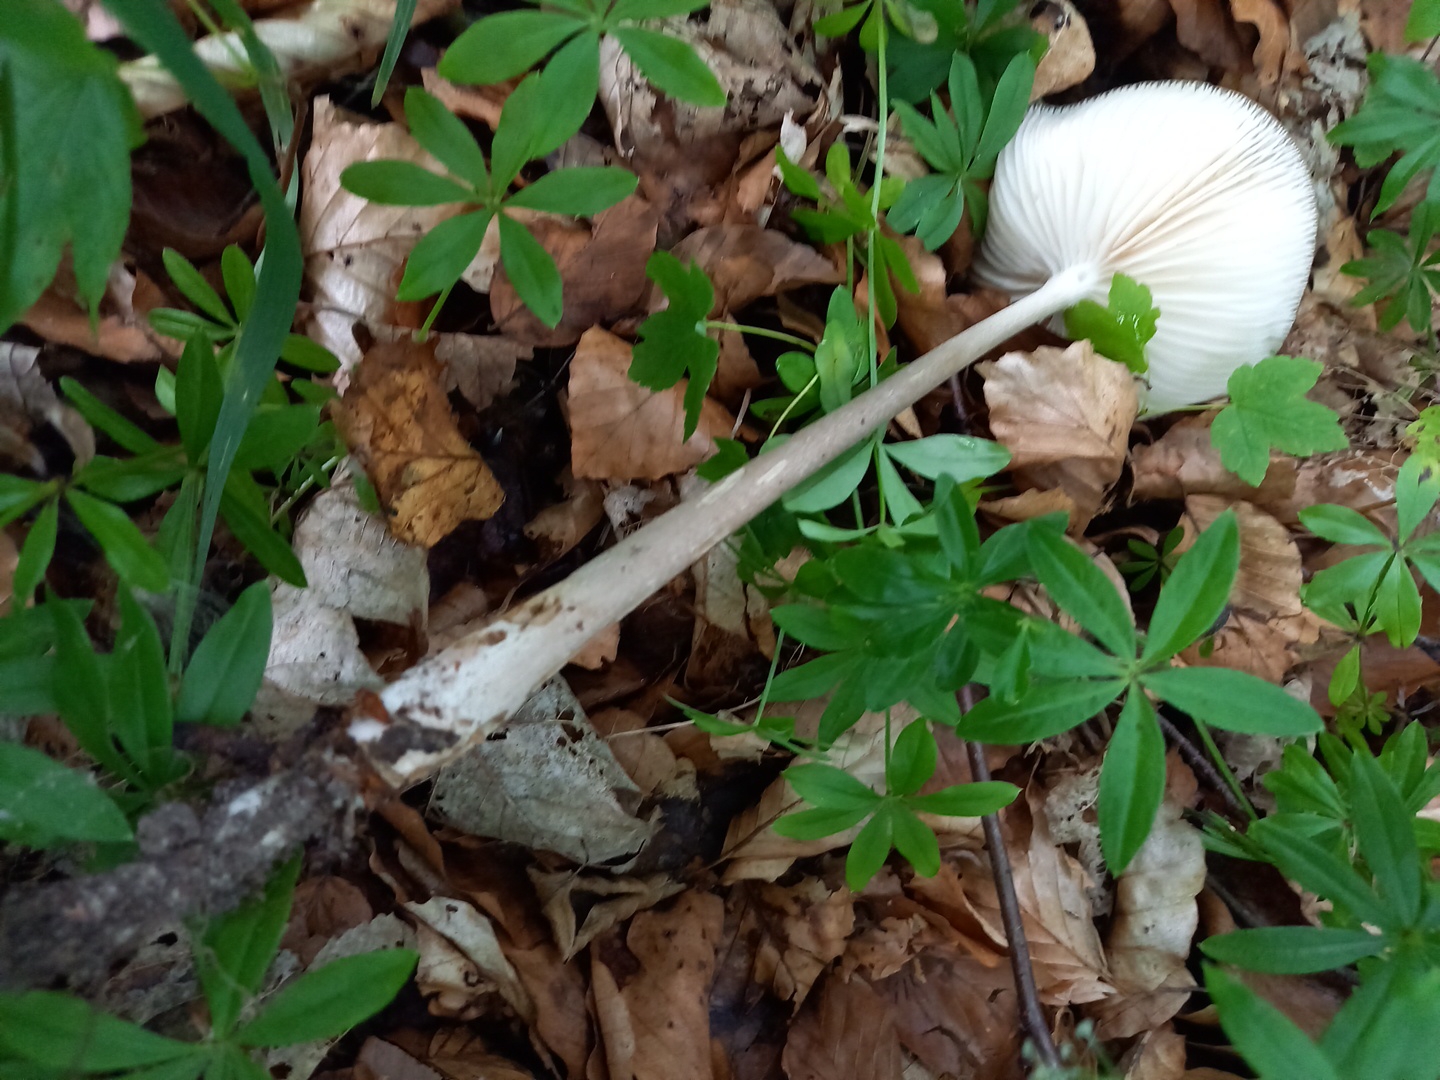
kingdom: Fungi
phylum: Basidiomycota
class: Agaricomycetes
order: Agaricales
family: Physalacriaceae
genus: Hymenopellis
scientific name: Hymenopellis radicata
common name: almindelig pælerodshat
